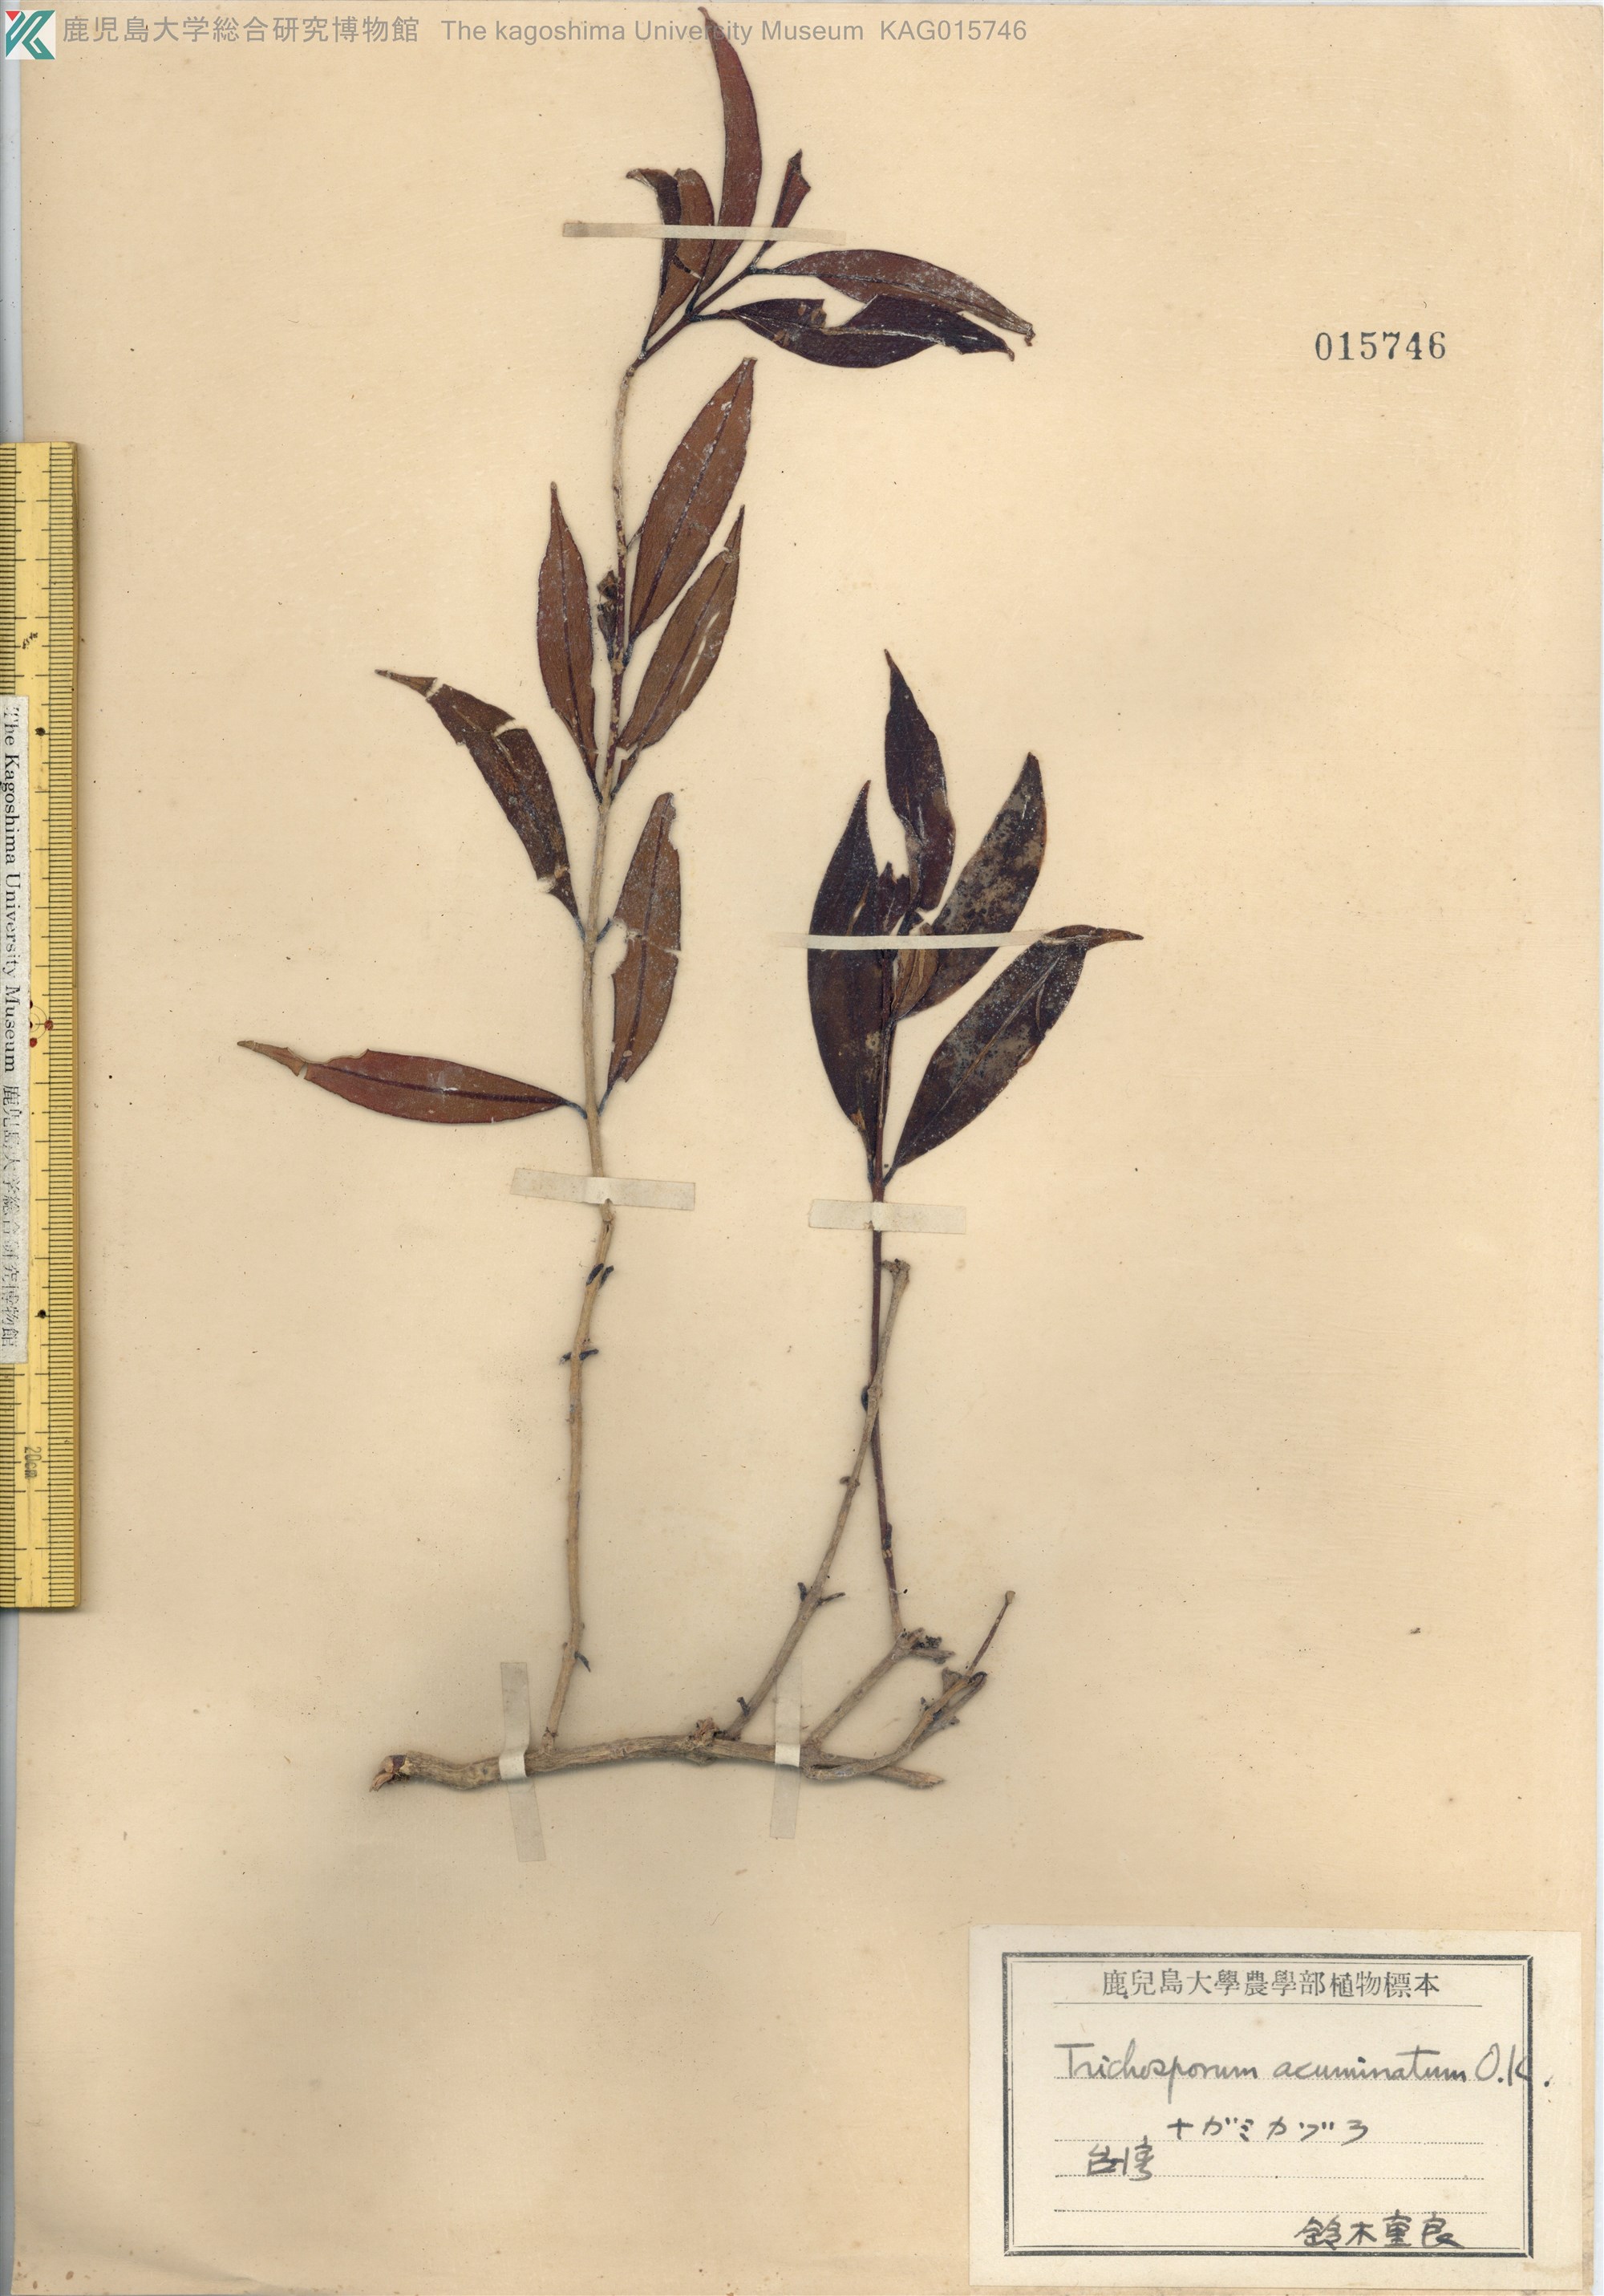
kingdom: Plantae
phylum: Tracheophyta
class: Magnoliopsida
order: Lamiales
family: Gesneriaceae
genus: Aeschynanthus
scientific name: Aeschynanthus acuminatus
